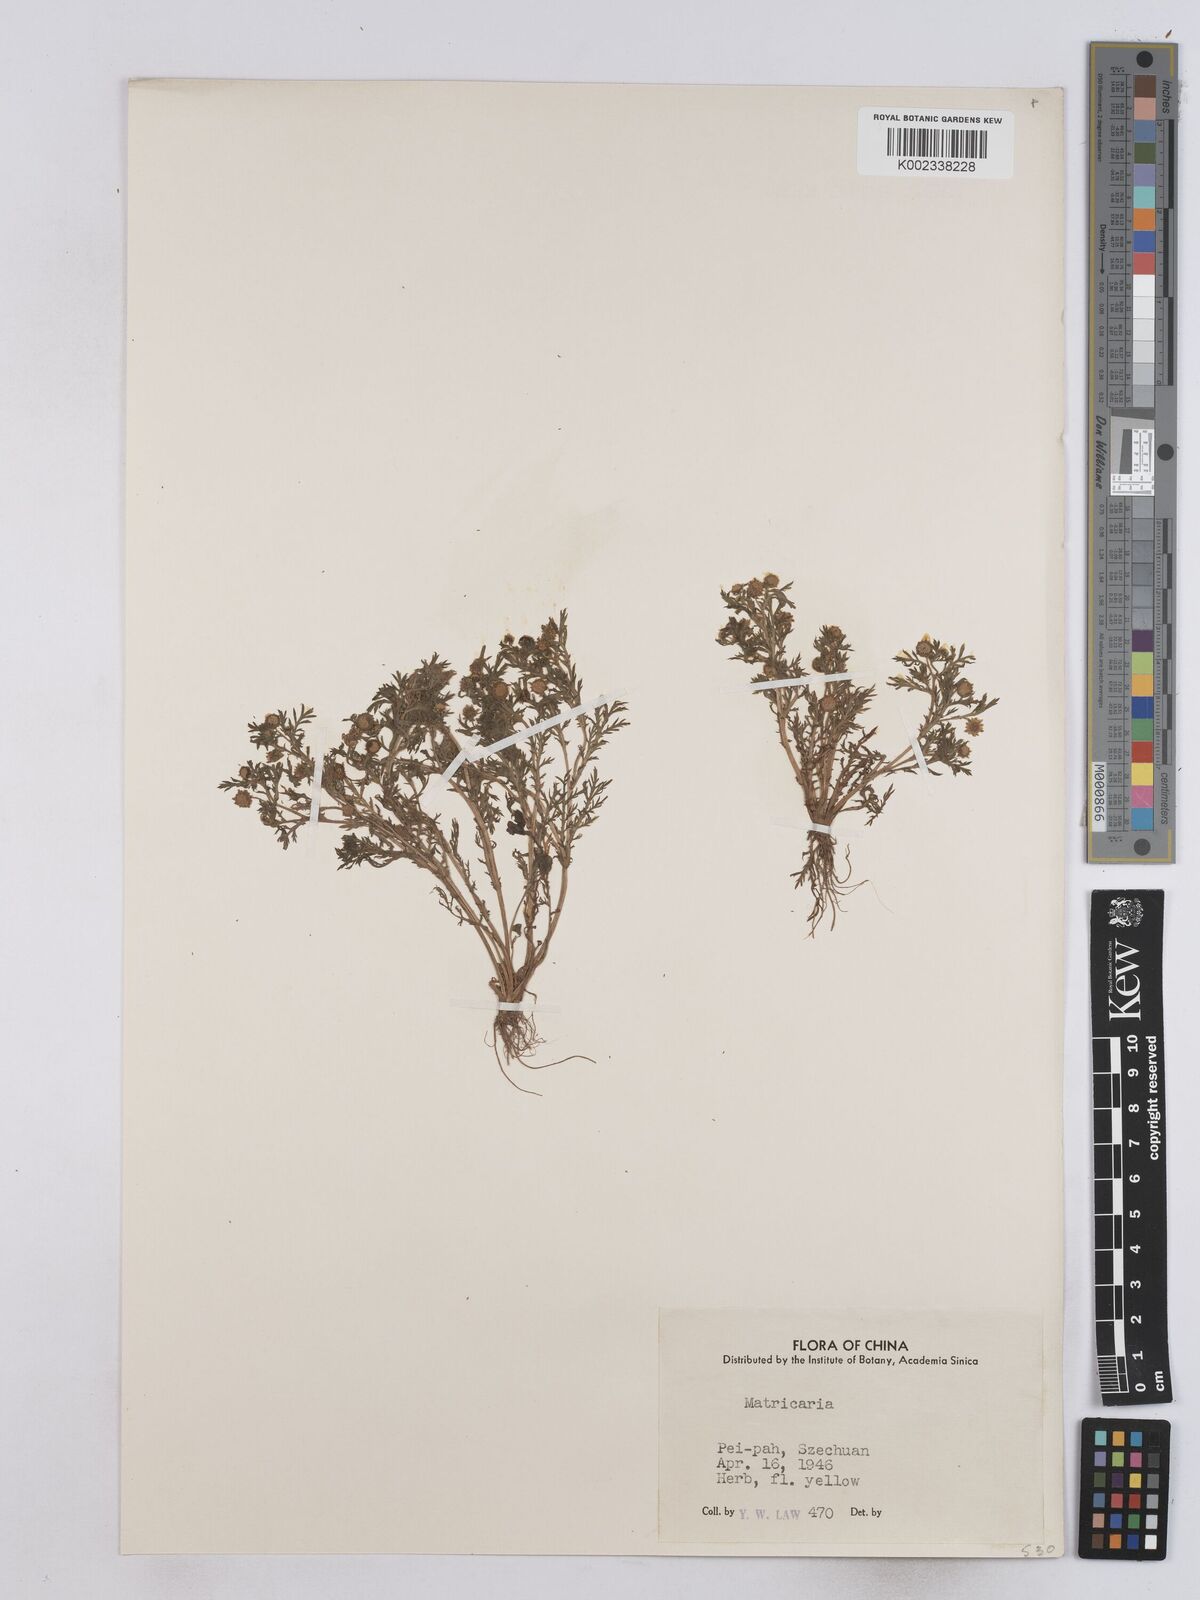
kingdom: Plantae
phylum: Tracheophyta
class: Magnoliopsida
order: Asterales
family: Asteraceae
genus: Matricaria
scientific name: Matricaria
